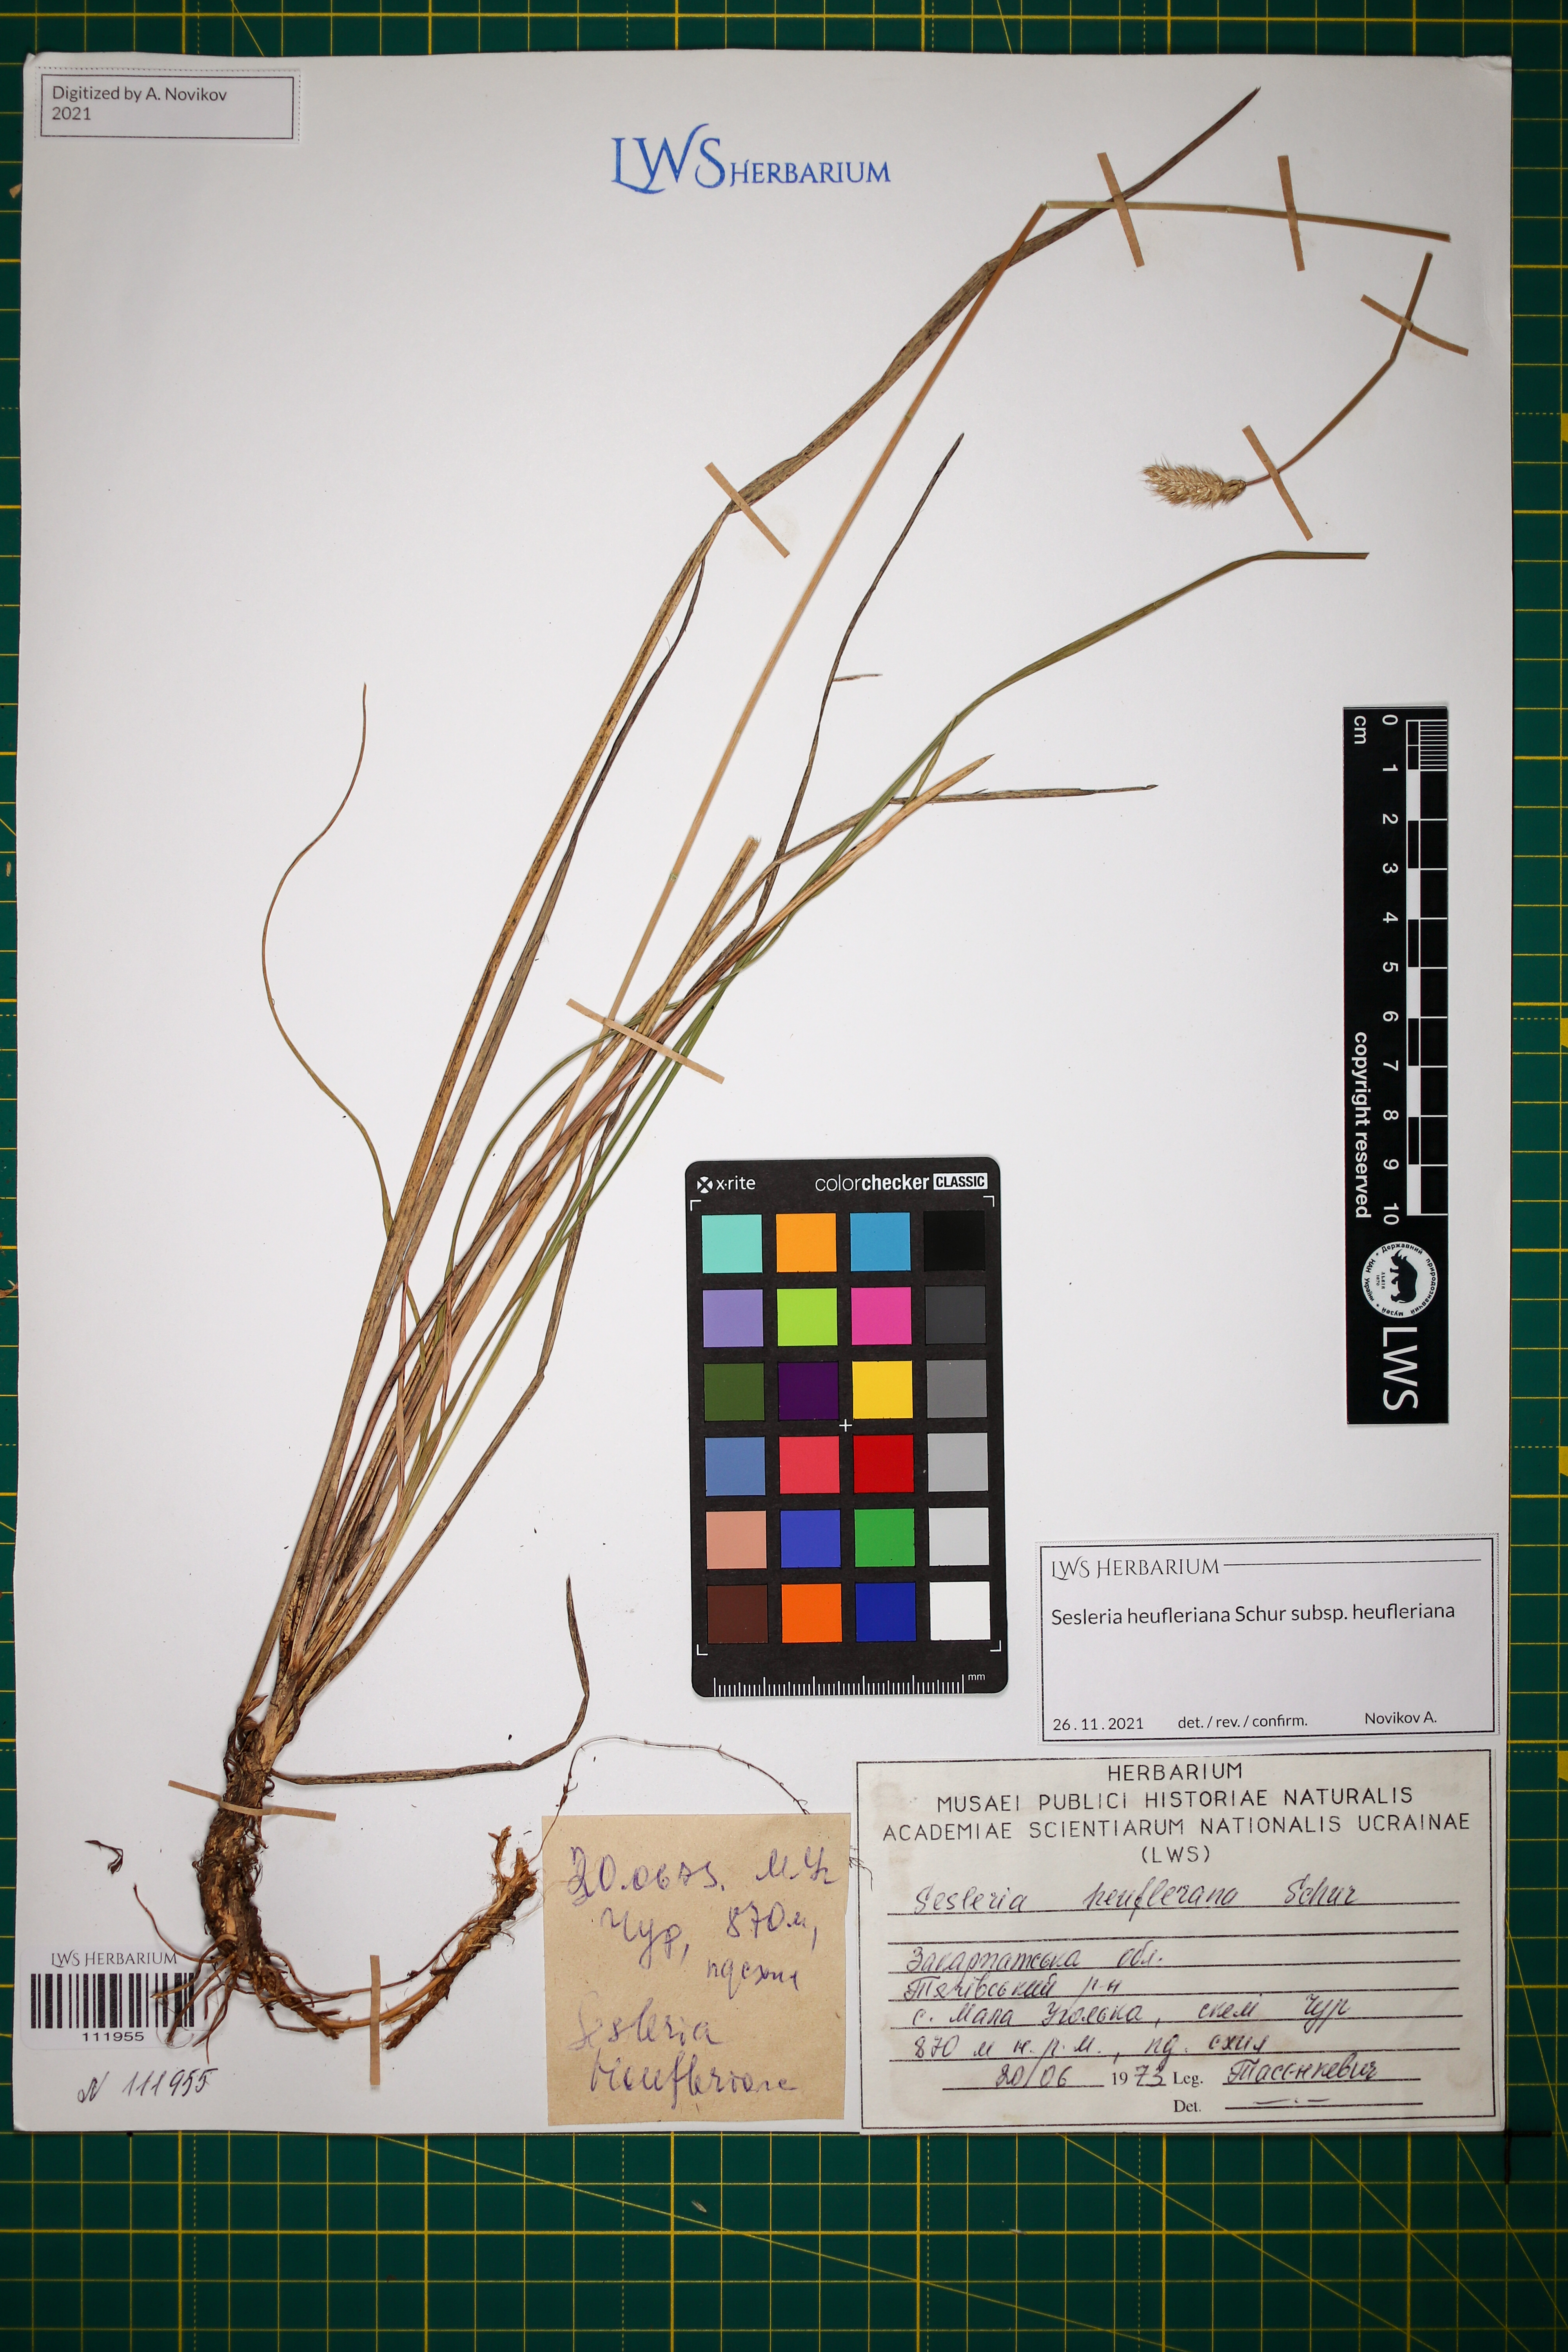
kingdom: Plantae
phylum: Tracheophyta
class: Liliopsida
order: Poales
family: Poaceae
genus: Sesleria
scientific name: Sesleria heufleriana
